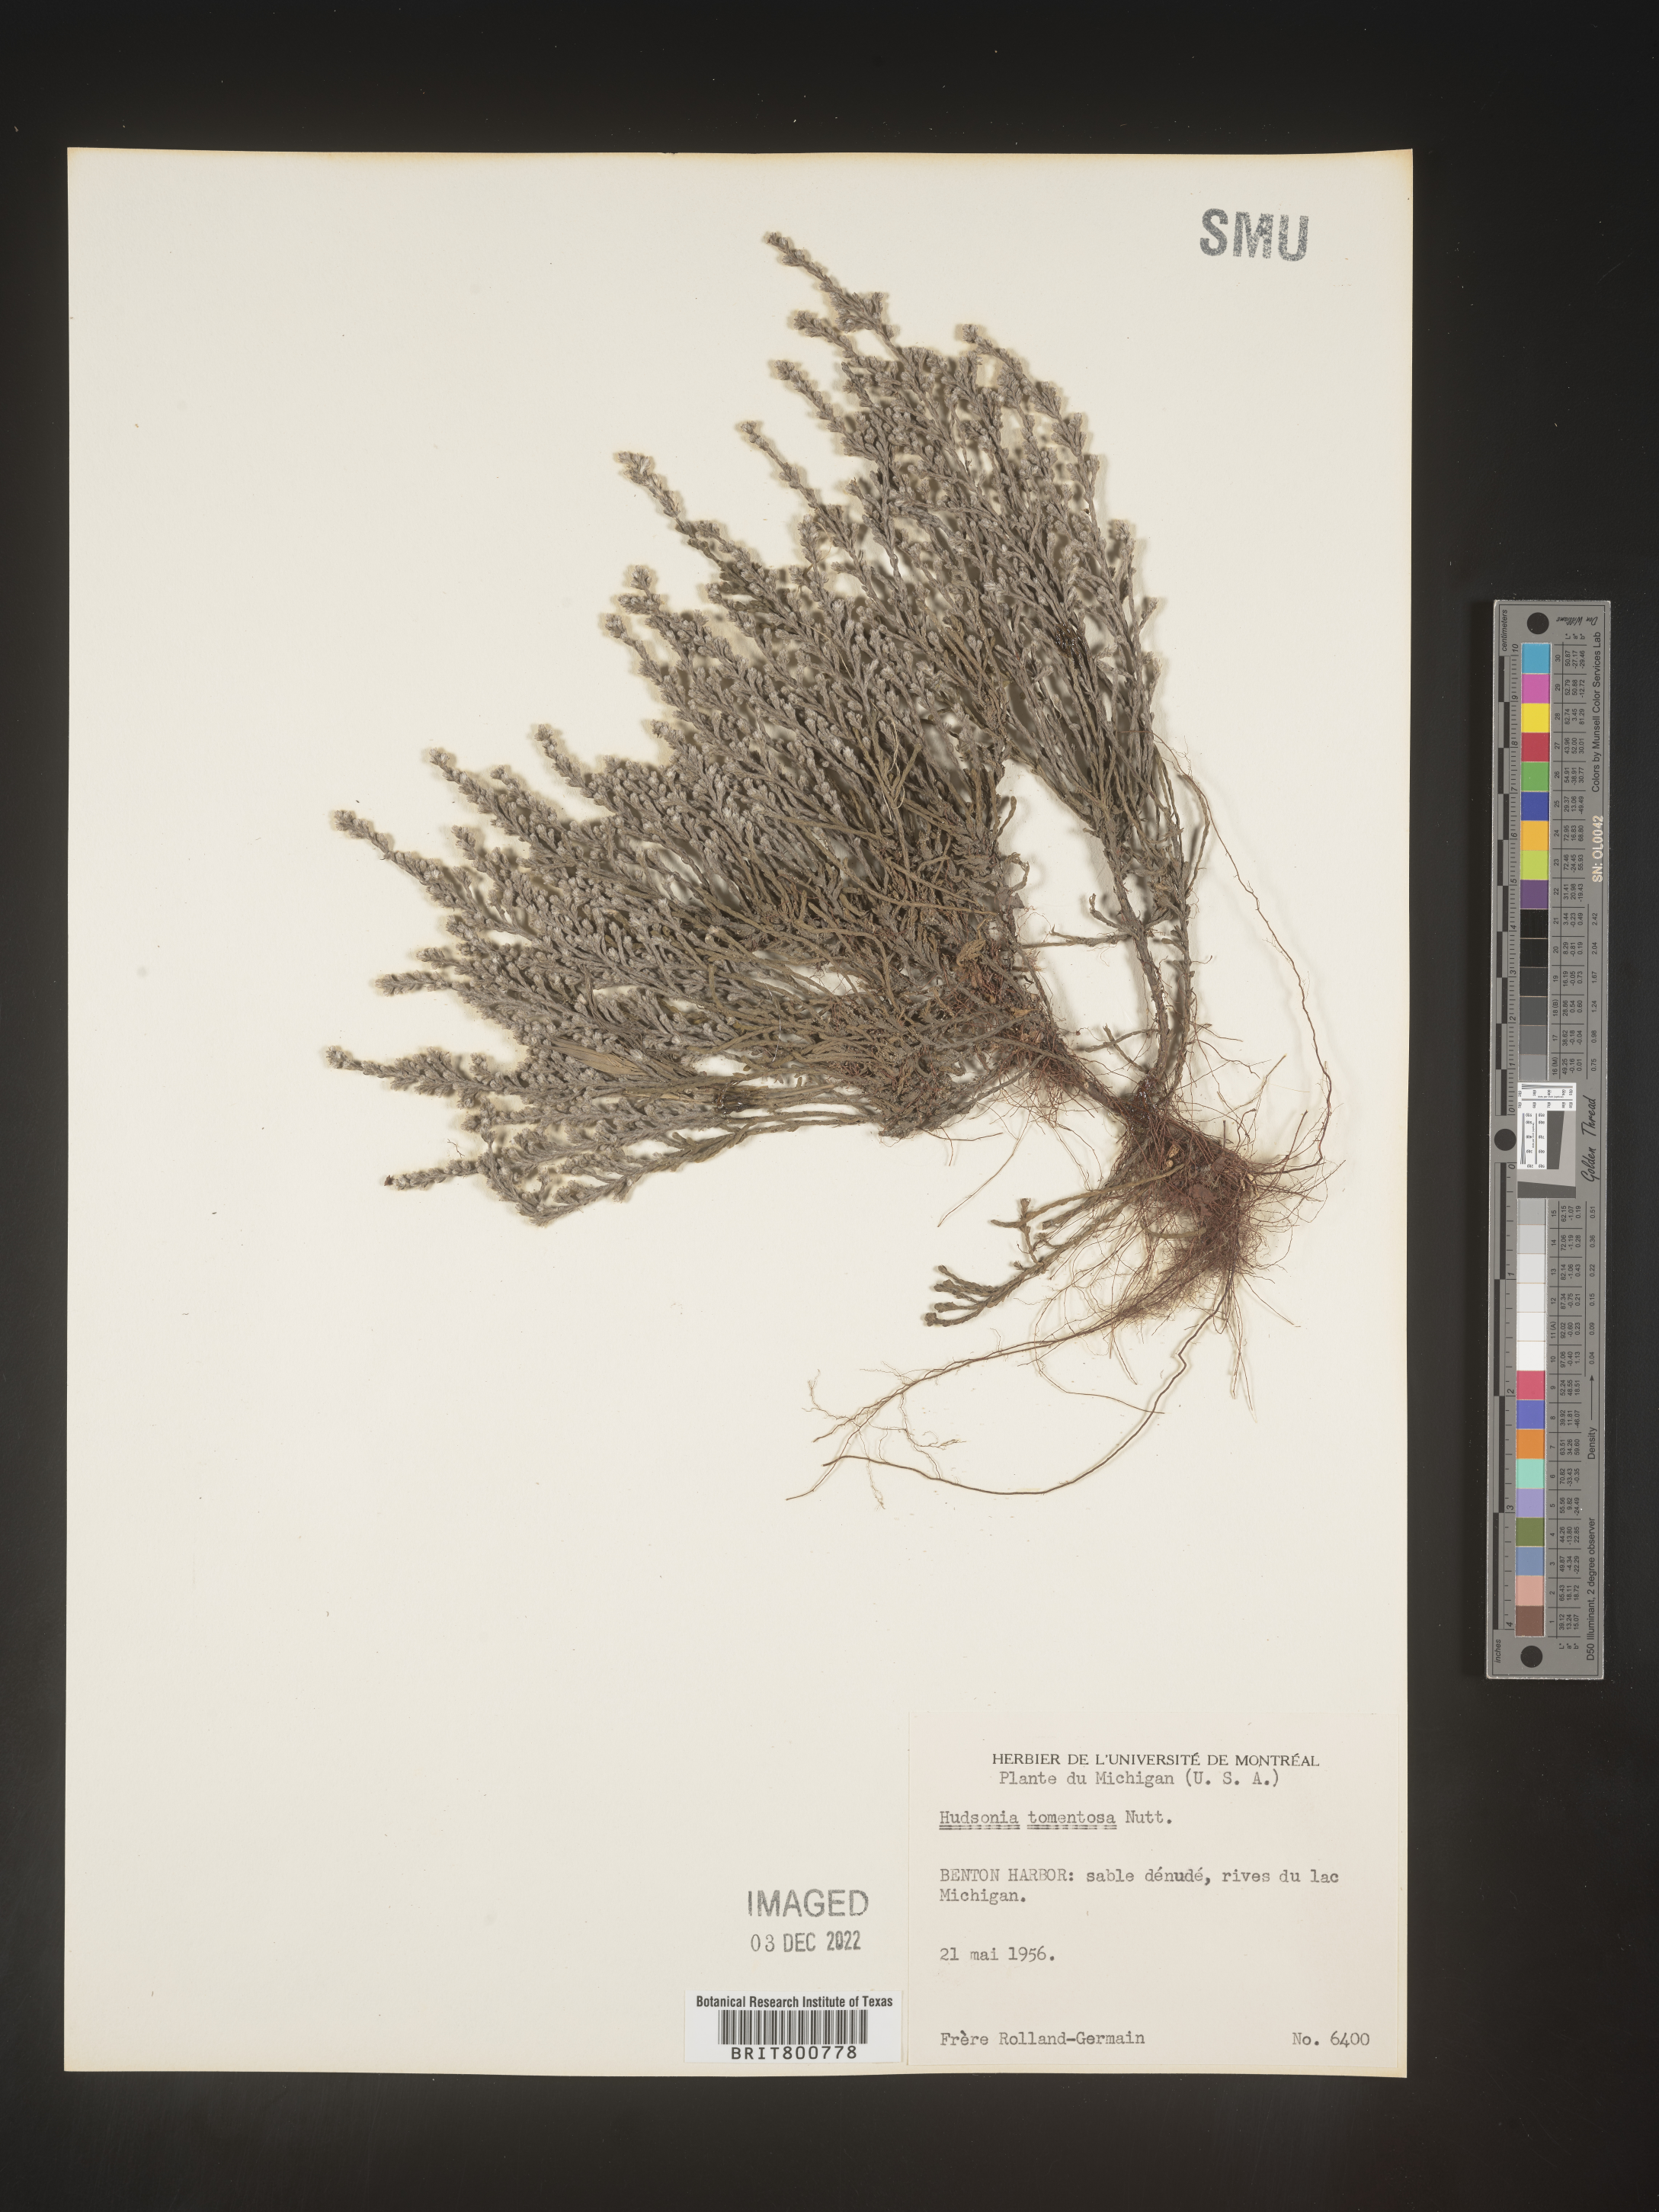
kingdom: Plantae
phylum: Tracheophyta
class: Magnoliopsida
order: Malvales
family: Cistaceae
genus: Hudsonia
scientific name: Hudsonia tomentosa
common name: Beach-heath
